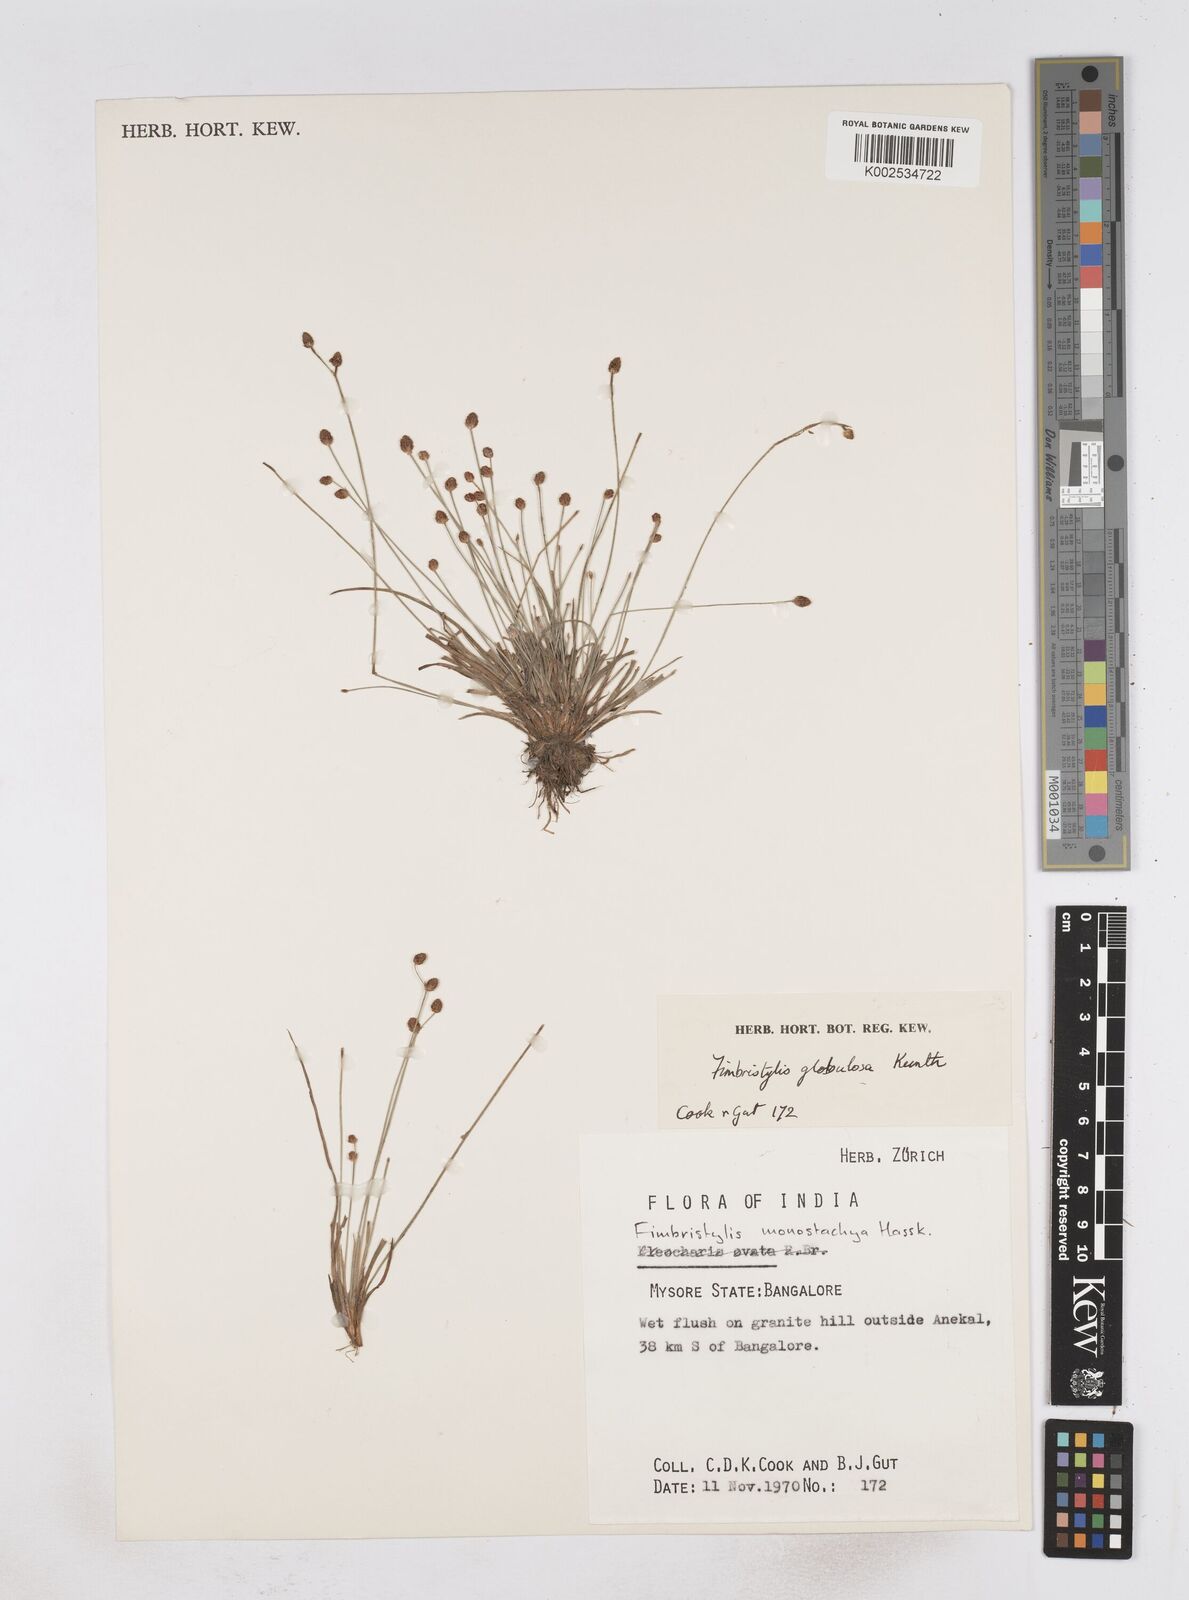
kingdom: Plantae
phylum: Tracheophyta
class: Liliopsida
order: Poales
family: Cyperaceae
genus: Fimbristylis
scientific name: Fimbristylis umbellaris
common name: Globular fimbristylis
